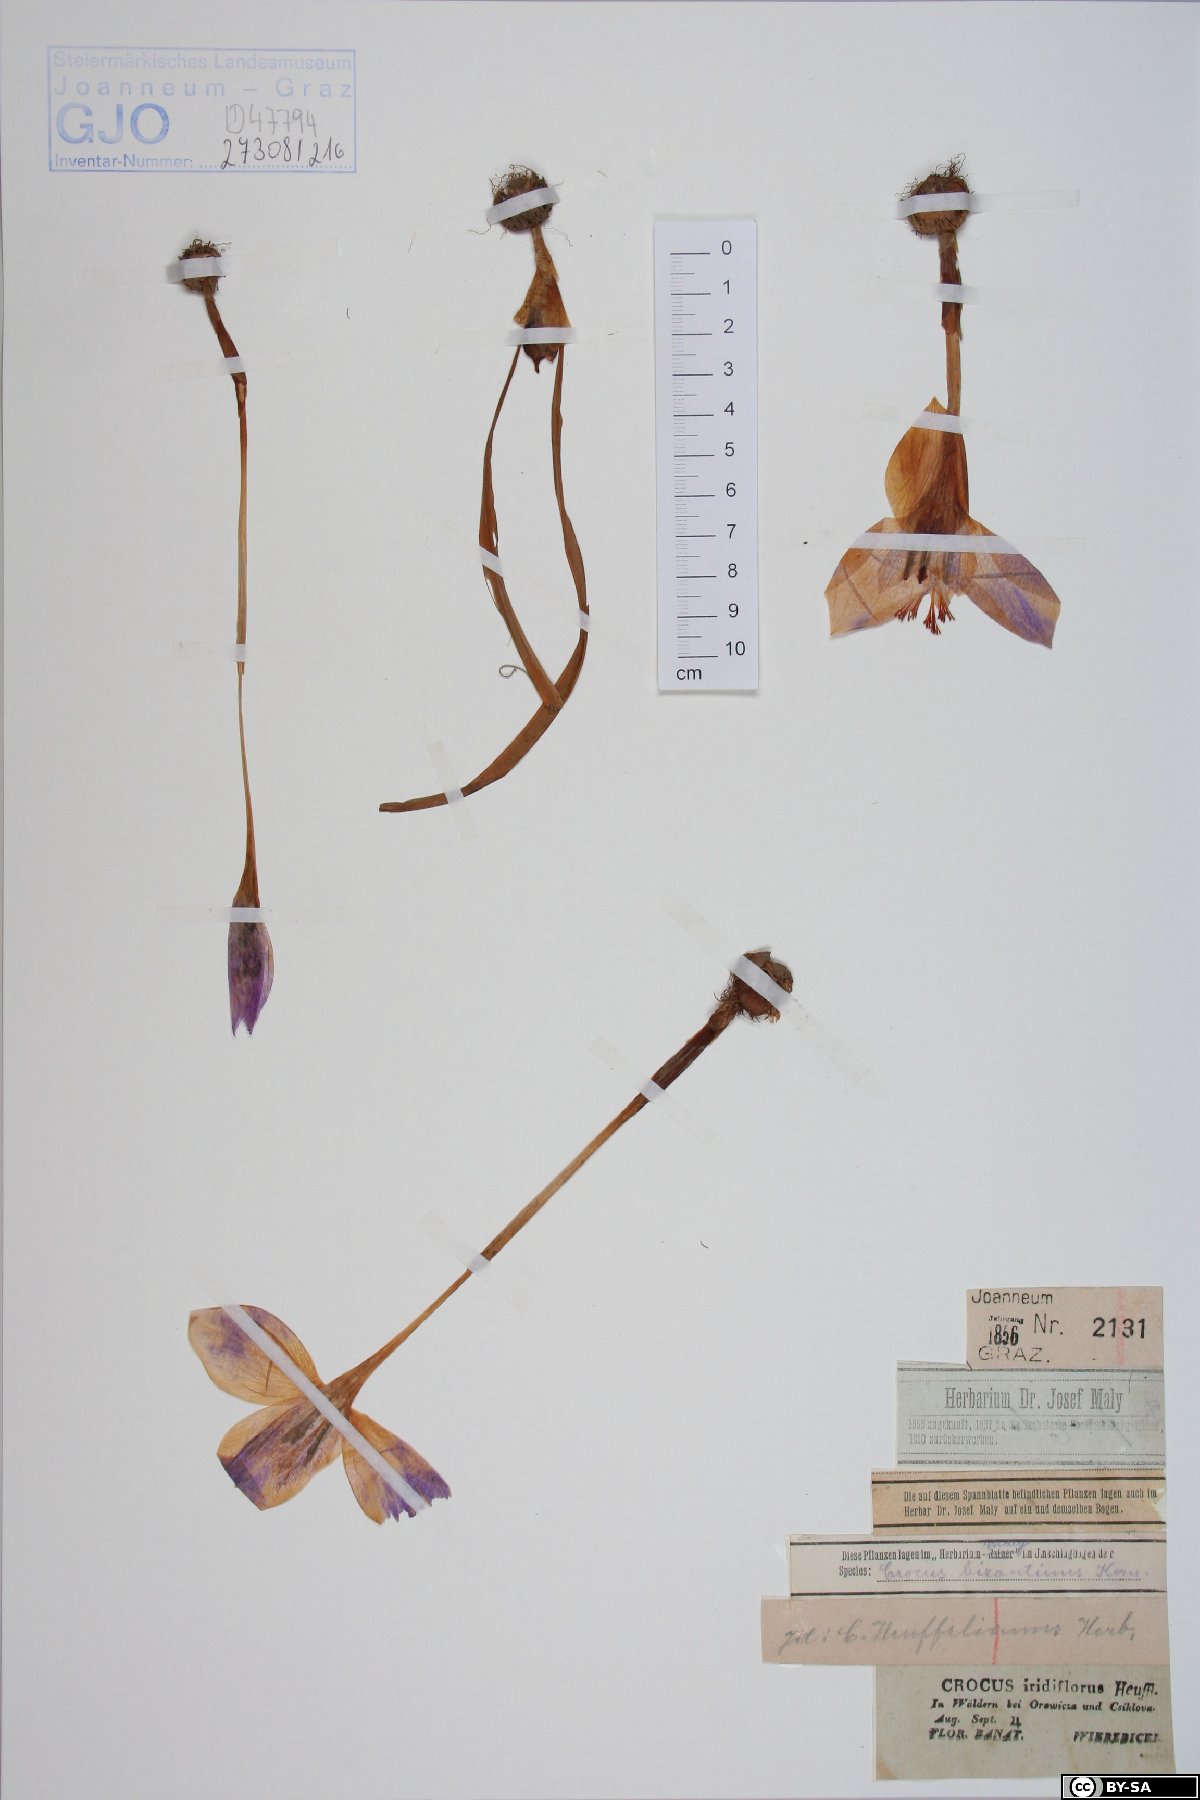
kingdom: Plantae
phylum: Tracheophyta
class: Liliopsida
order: Asparagales
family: Iridaceae
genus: Crocus
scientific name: Crocus banaticus
